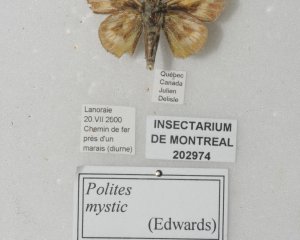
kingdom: Animalia
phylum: Arthropoda
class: Insecta
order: Lepidoptera
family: Hesperiidae
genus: Polites
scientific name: Polites
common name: Long Dash Skipper
